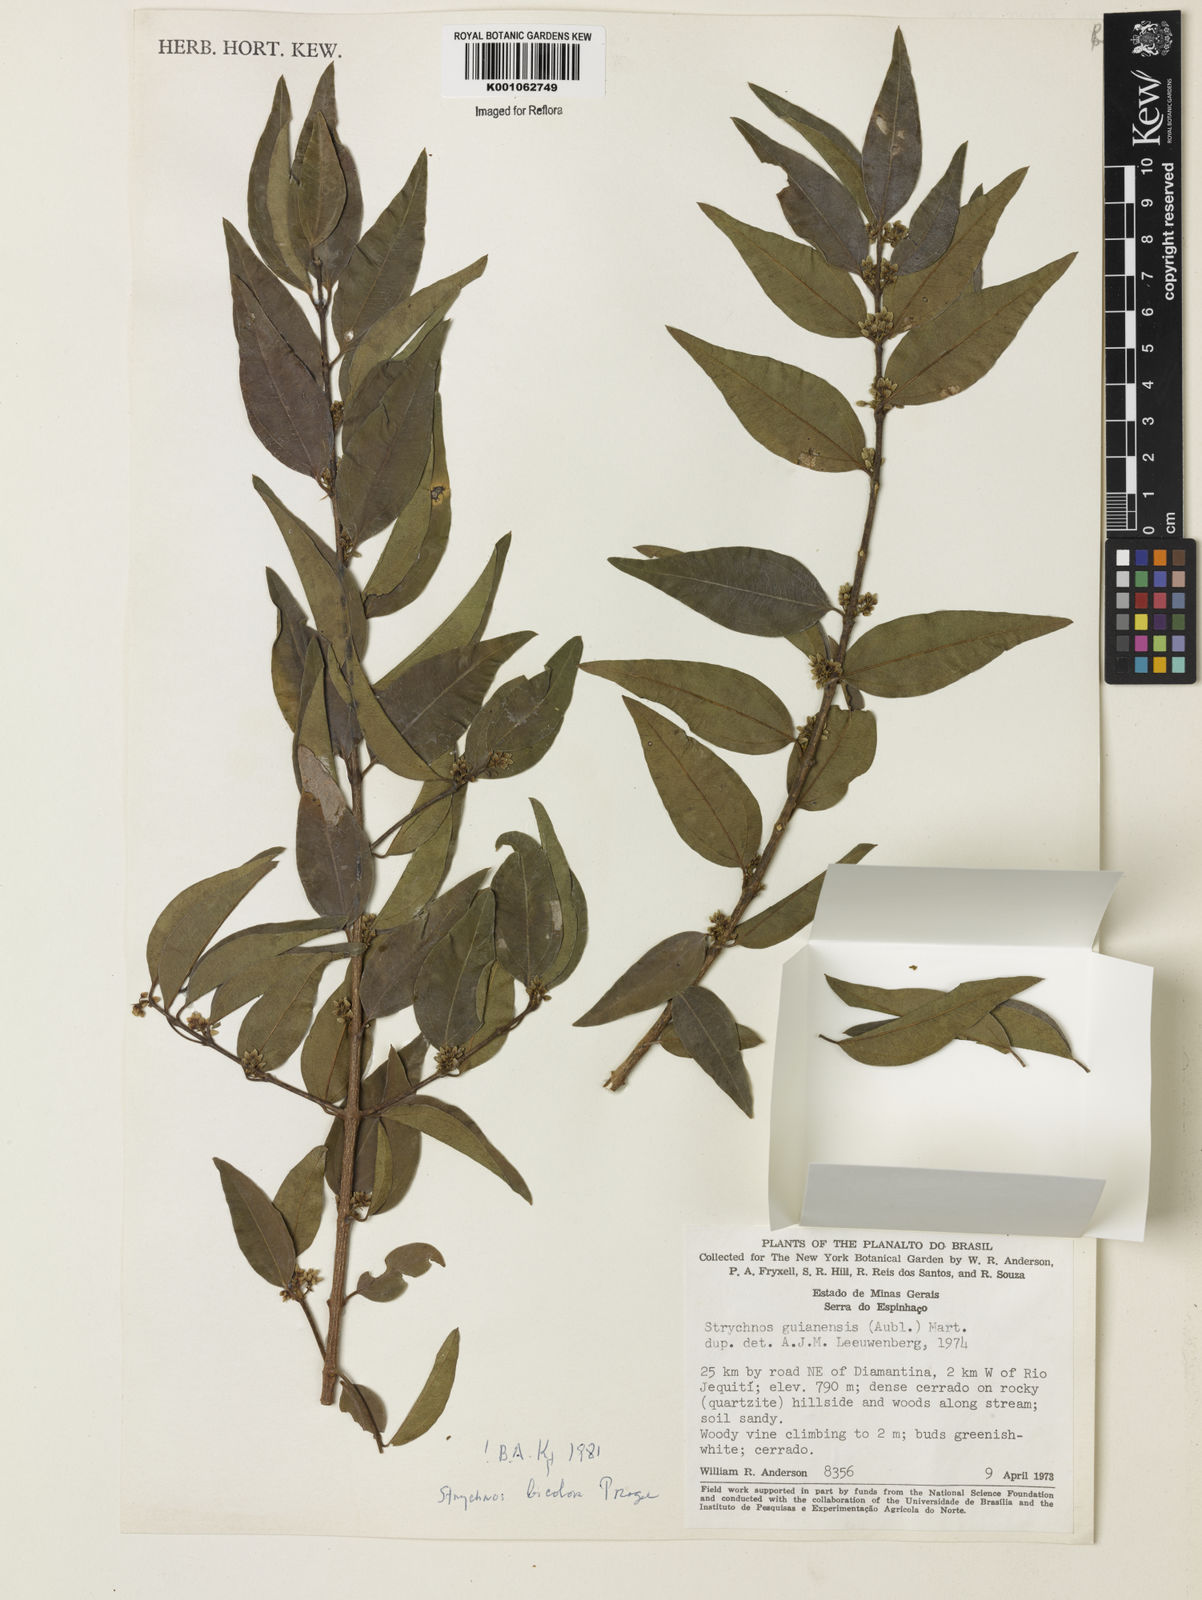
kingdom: Plantae
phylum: Tracheophyta
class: Magnoliopsida
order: Gentianales
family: Loganiaceae
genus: Strychnos
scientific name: Strychnos bicolor
